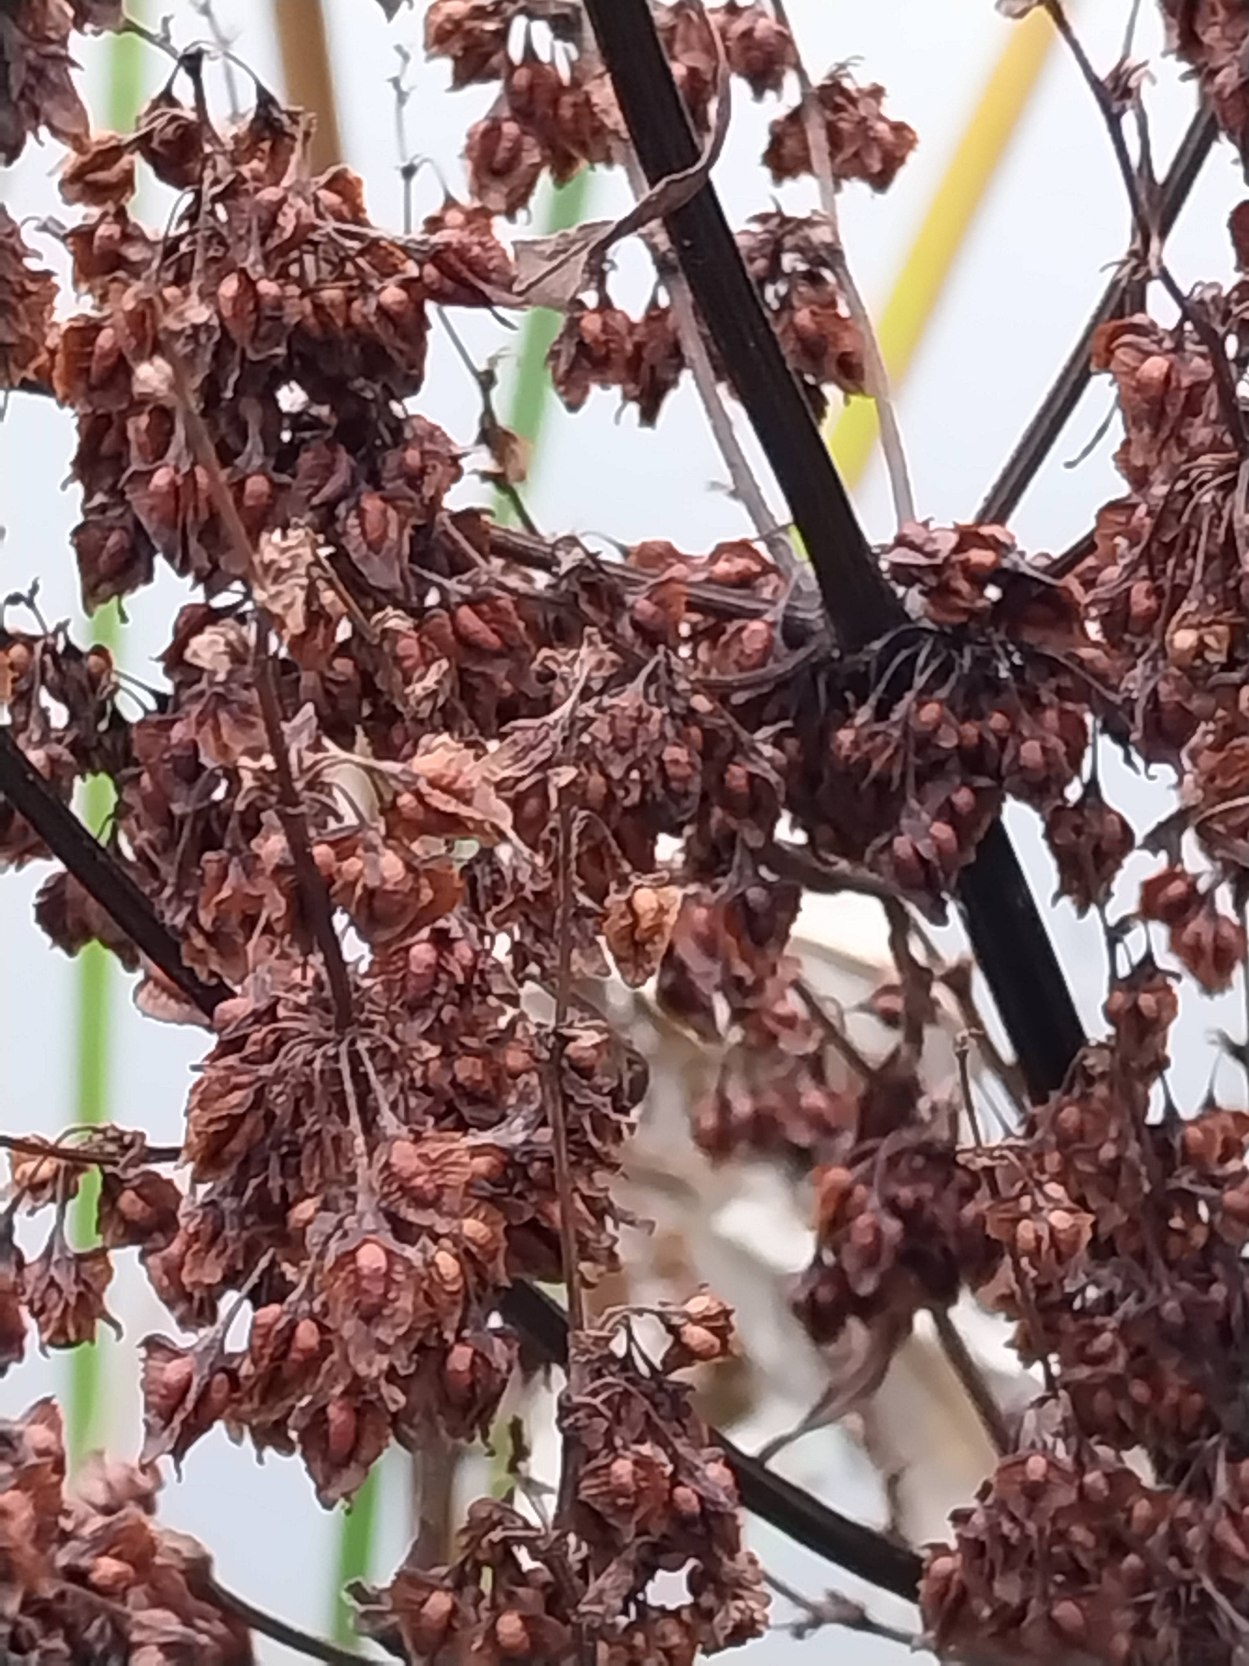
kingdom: Plantae
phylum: Tracheophyta
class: Magnoliopsida
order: Caryophyllales
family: Polygonaceae
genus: Rumex
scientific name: Rumex hydrolapathum
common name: Vand-skræppe
